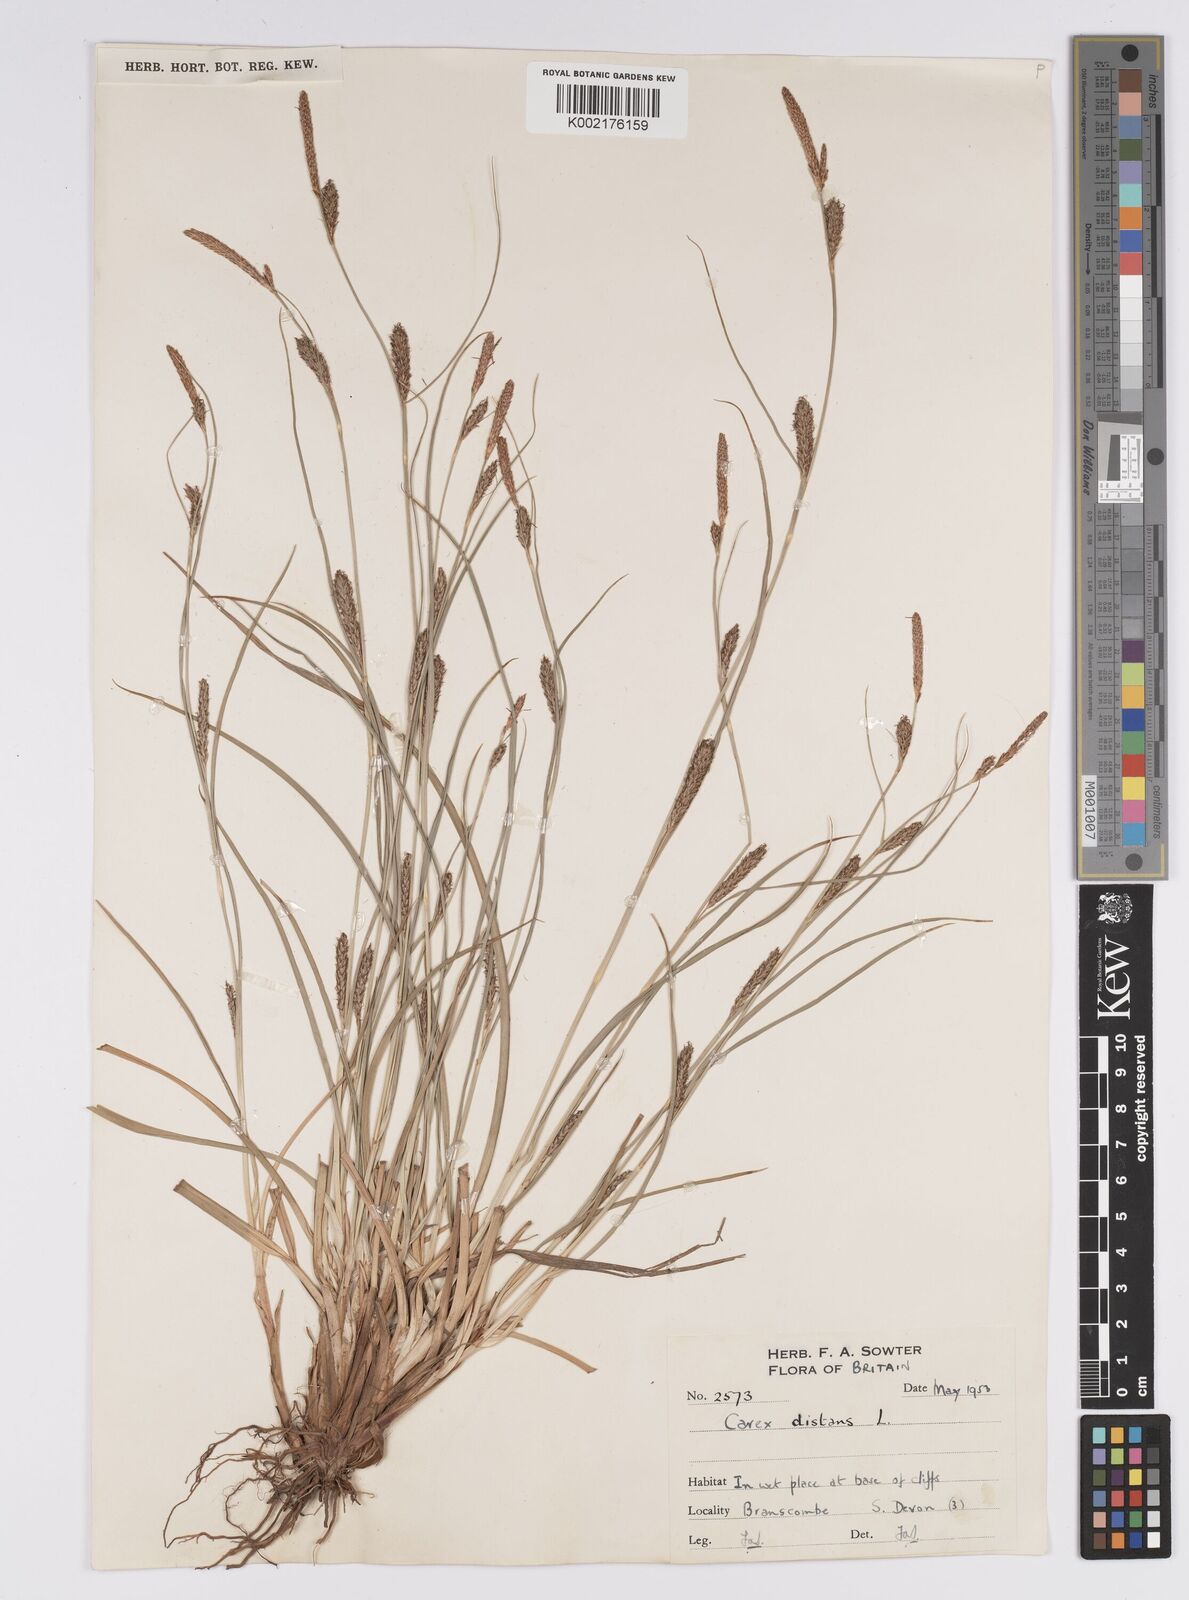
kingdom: Plantae
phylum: Tracheophyta
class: Liliopsida
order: Poales
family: Cyperaceae
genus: Carex
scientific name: Carex distans
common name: Distant sedge
